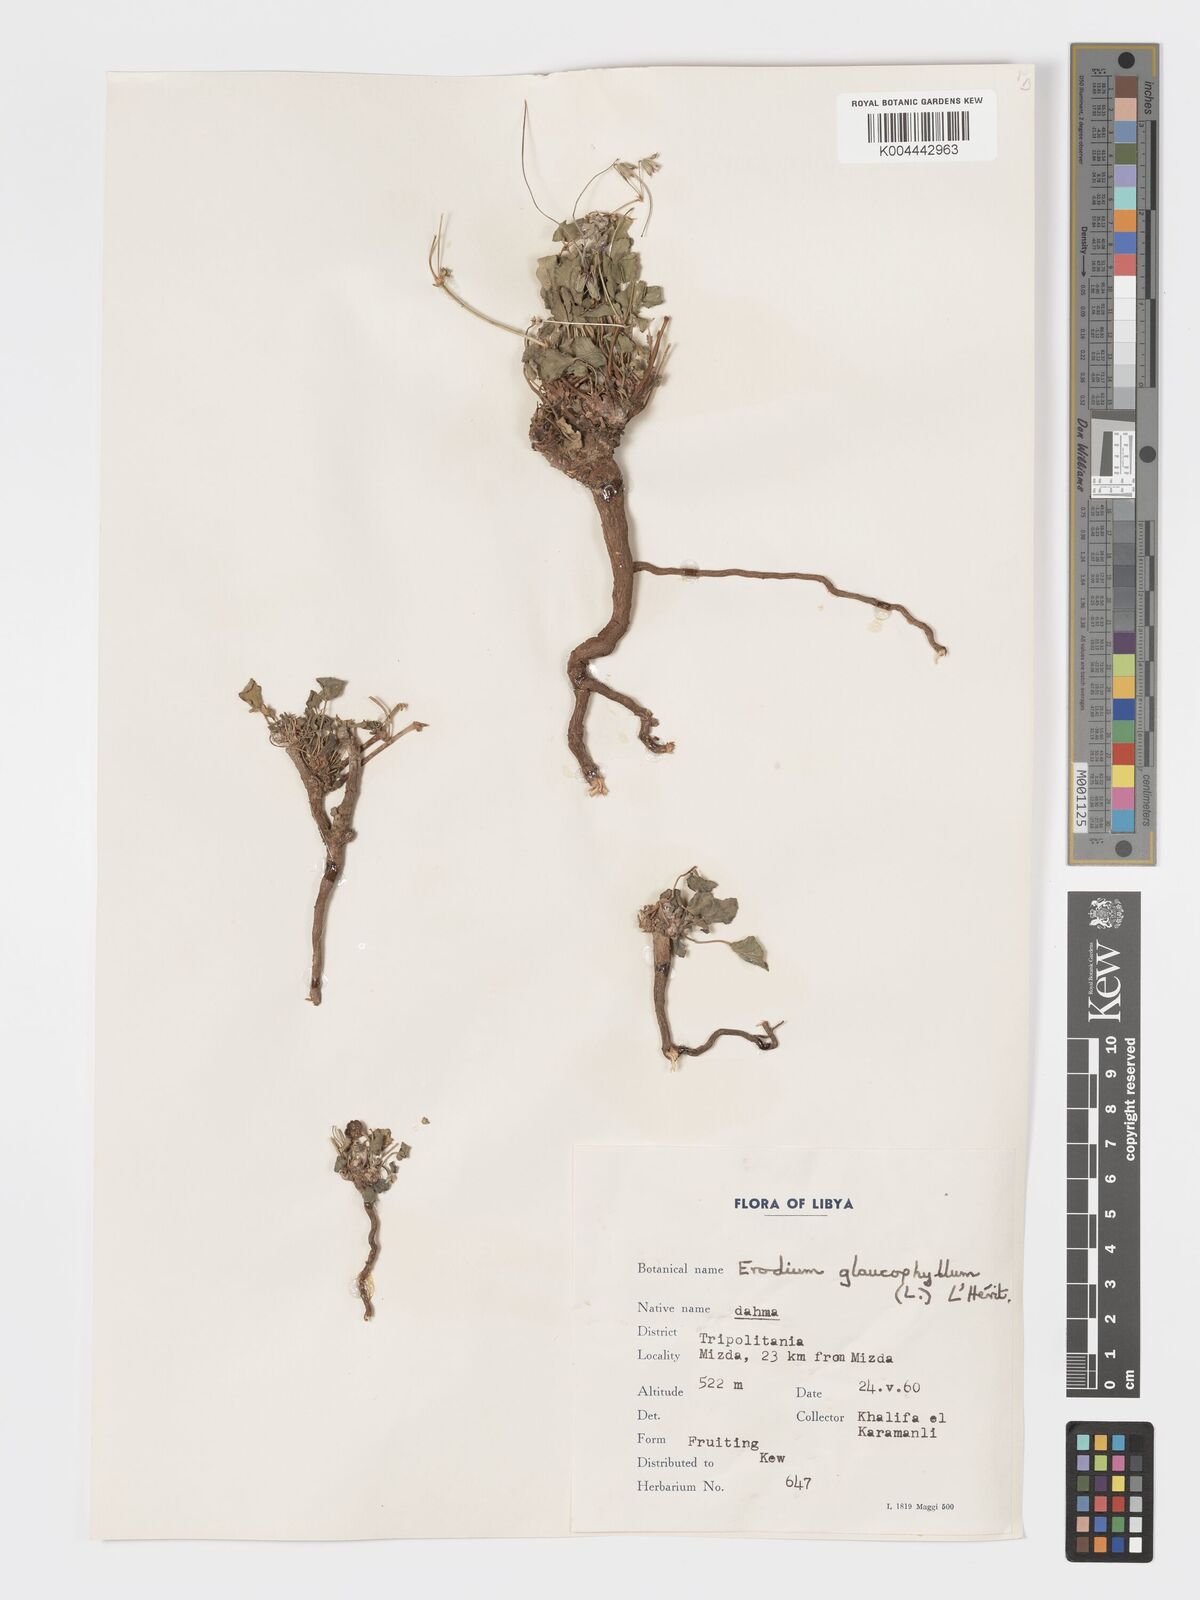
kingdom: Plantae
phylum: Tracheophyta
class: Magnoliopsida
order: Geraniales
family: Geraniaceae
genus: Erodium
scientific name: Erodium glaucophyllum
